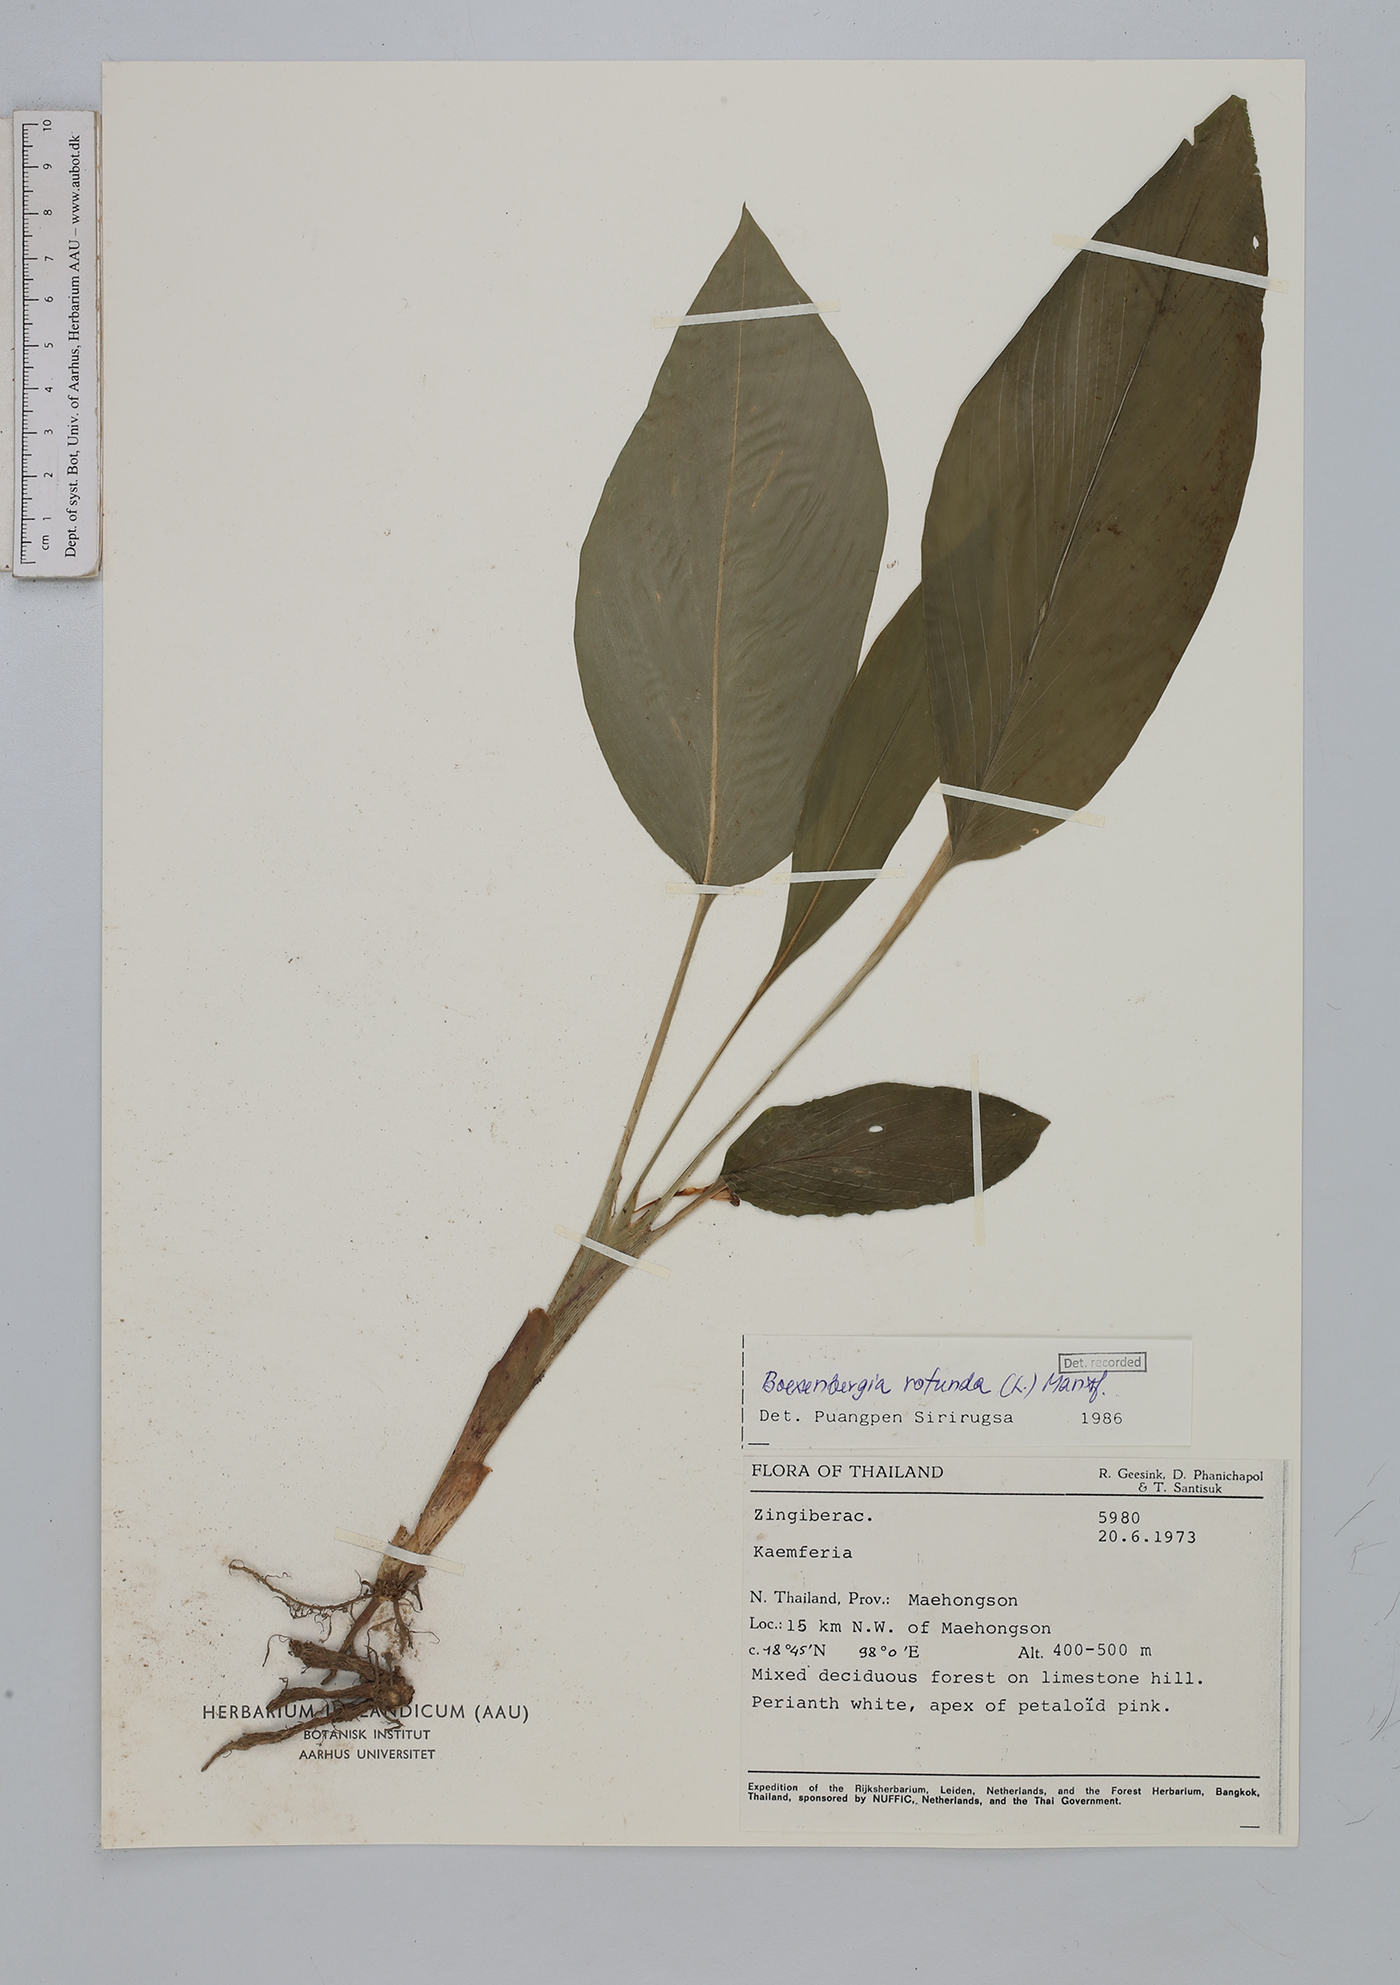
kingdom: Plantae
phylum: Tracheophyta
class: Liliopsida
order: Zingiberales
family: Zingiberaceae
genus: Boesenbergia
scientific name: Boesenbergia rotunda
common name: Chinese ginger
